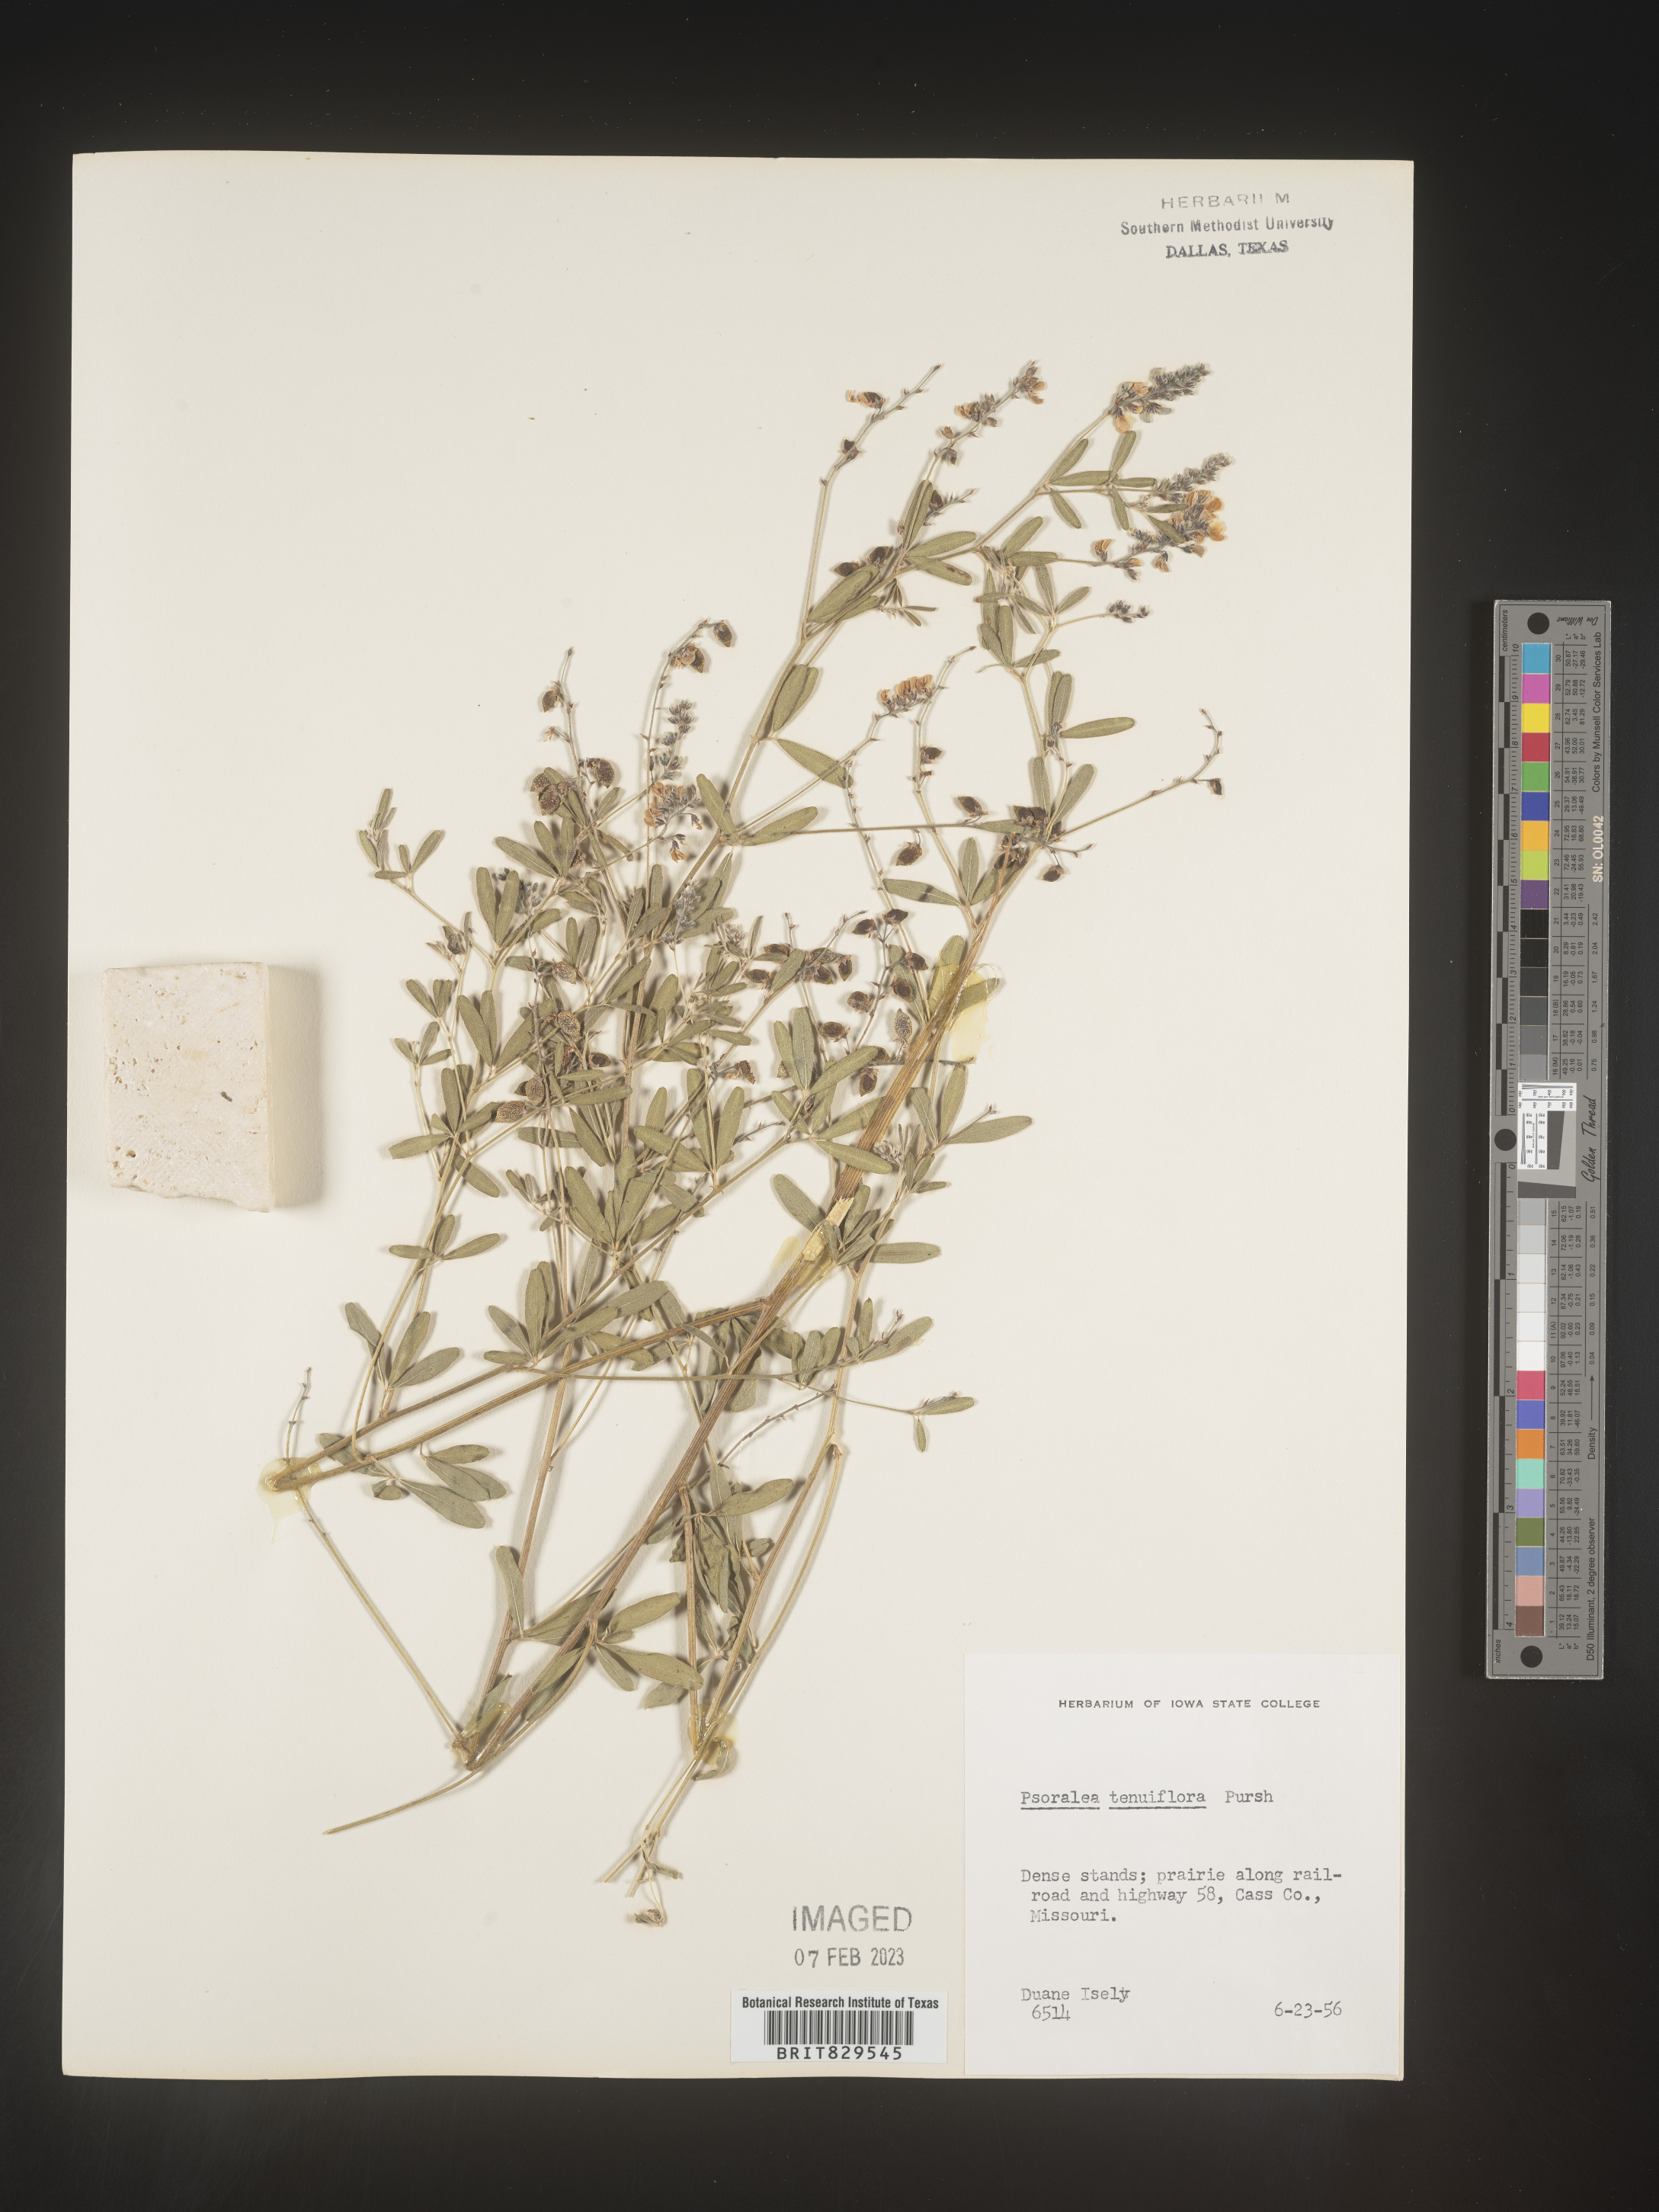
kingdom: Plantae
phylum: Tracheophyta
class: Magnoliopsida
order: Fabales
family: Fabaceae
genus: Pediomelum
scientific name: Pediomelum tenuiflorum
